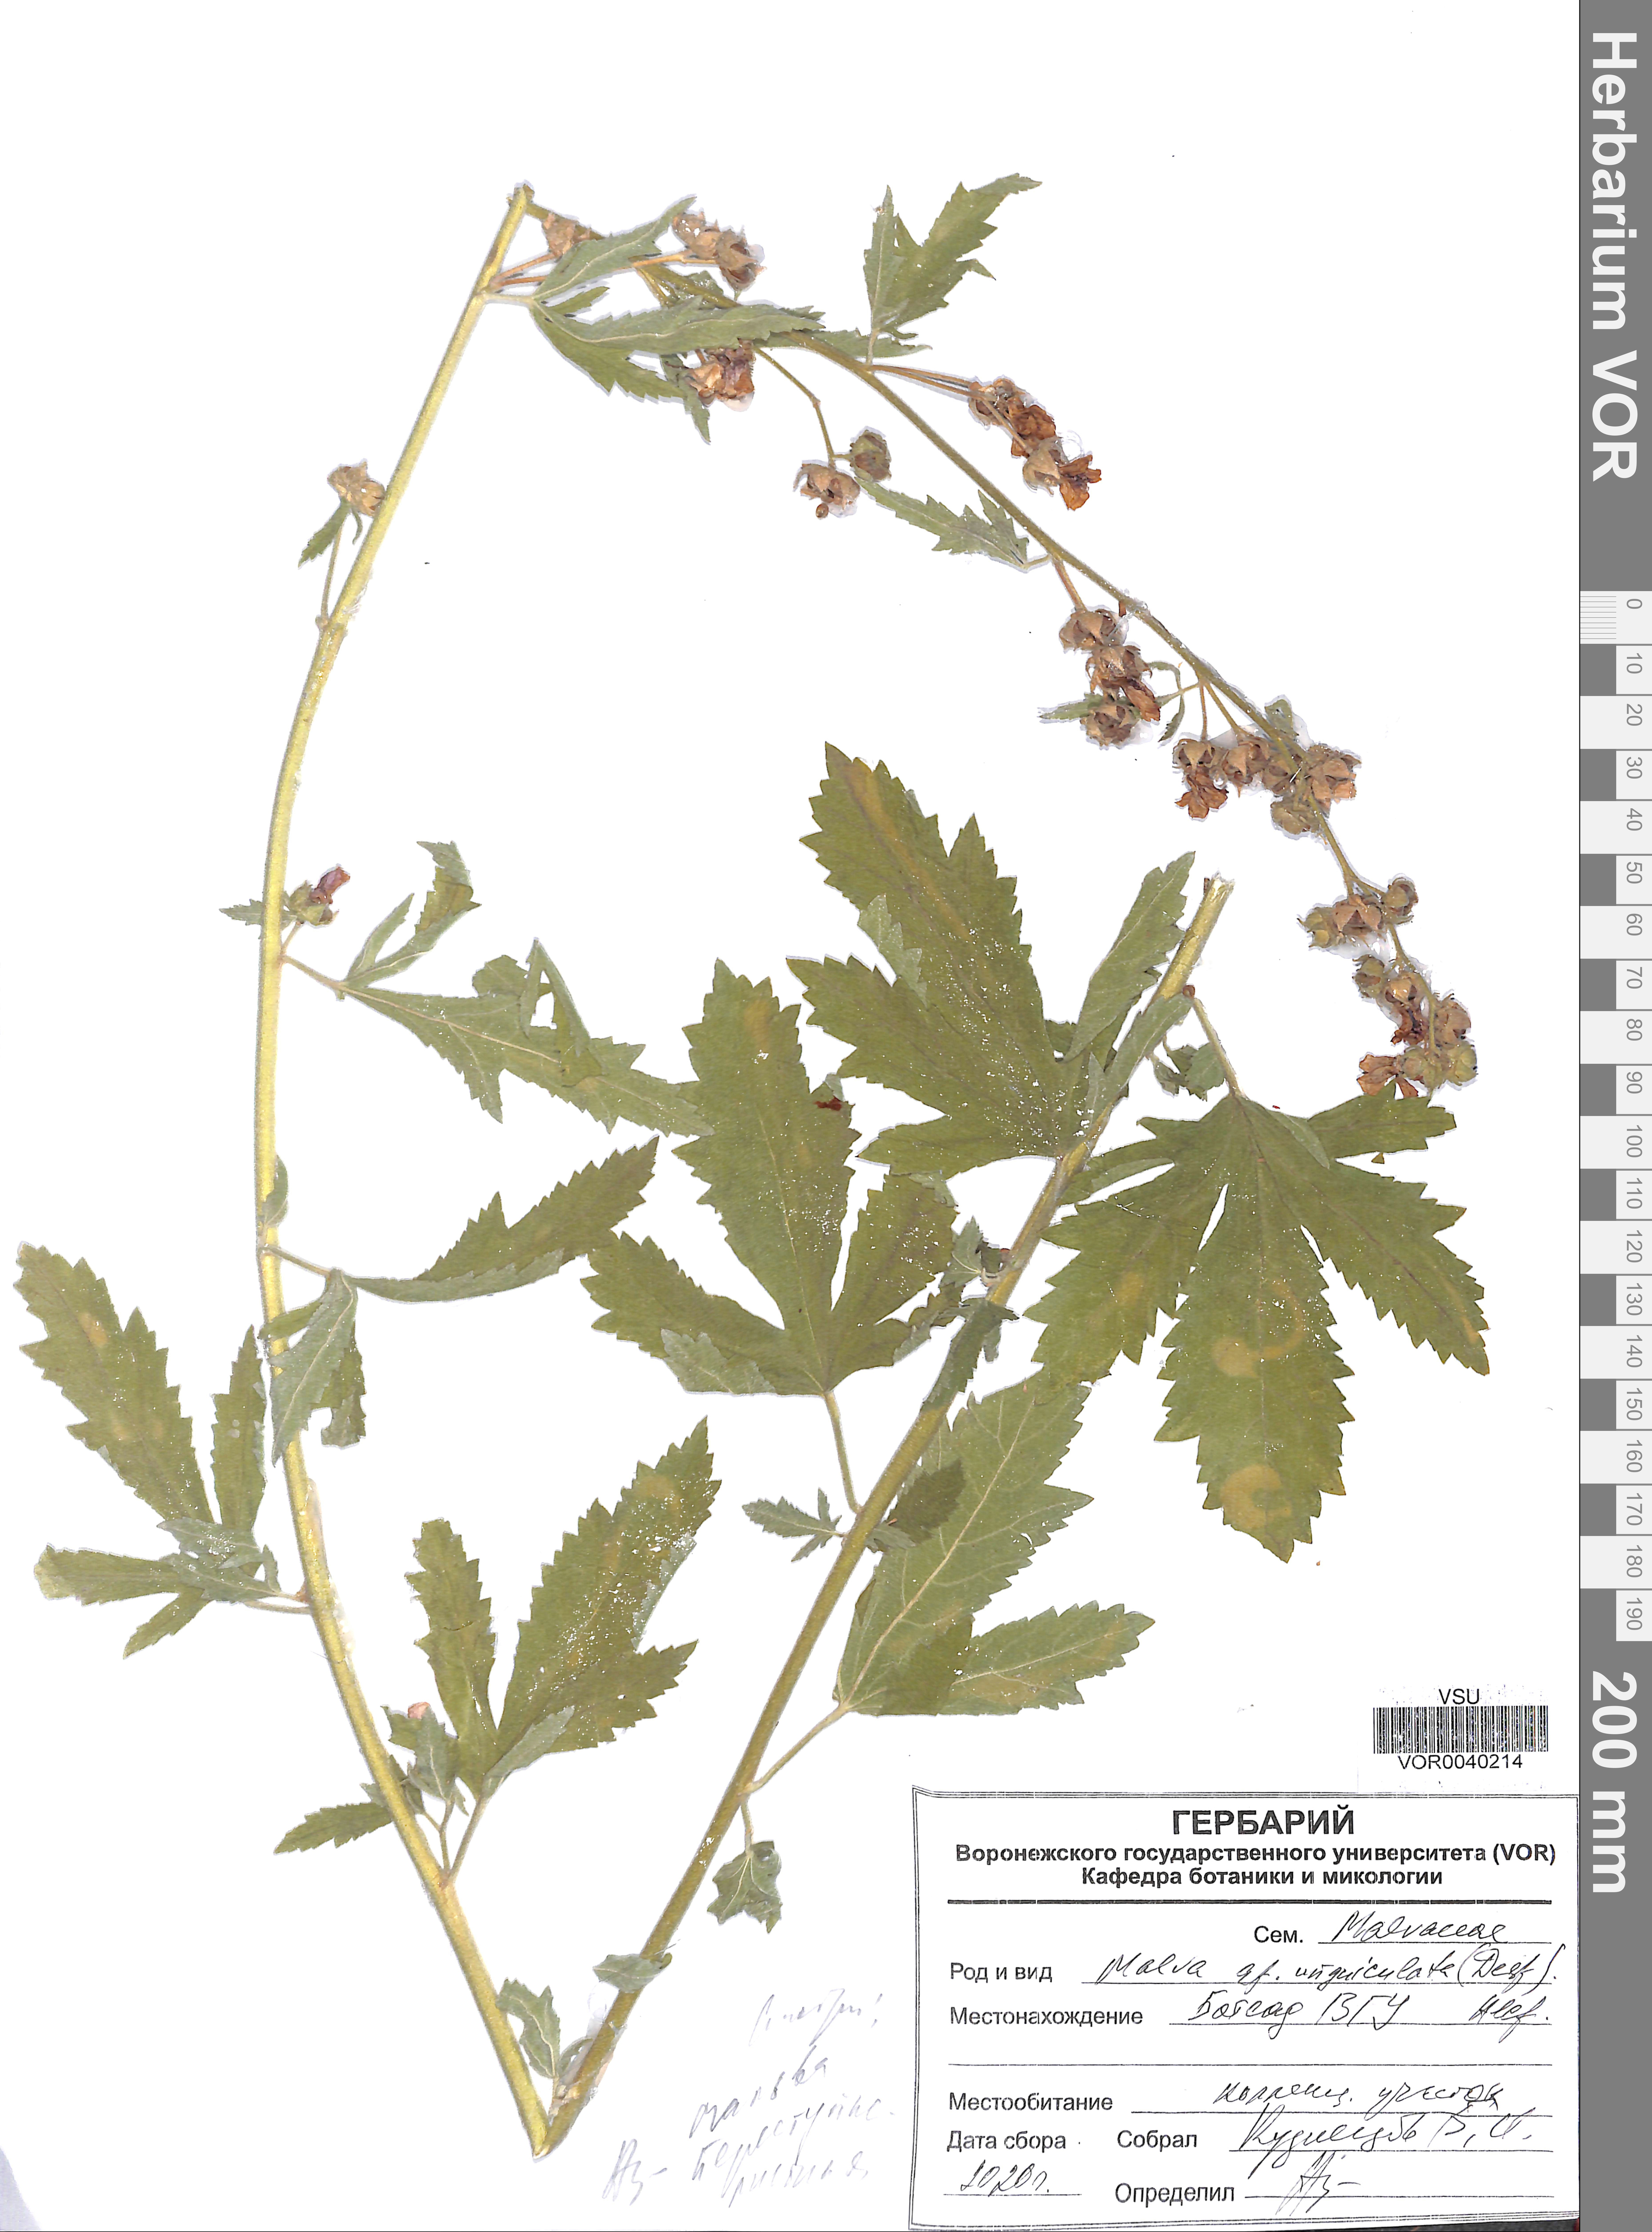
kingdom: Plantae
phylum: Tracheophyta
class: Magnoliopsida
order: Malvales
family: Malvaceae
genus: Malva
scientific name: Malva unguiculata
